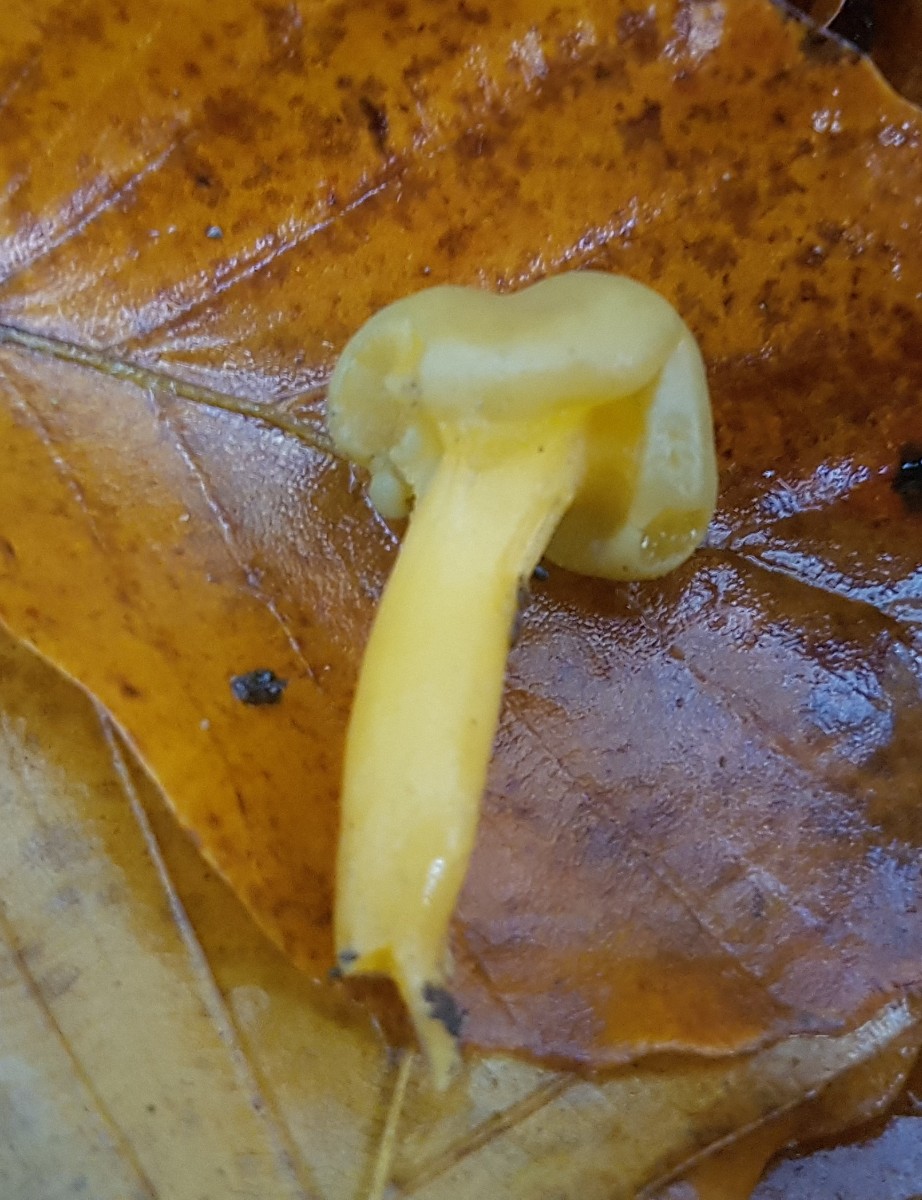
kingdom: Fungi
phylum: Ascomycota
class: Leotiomycetes
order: Leotiales
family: Leotiaceae
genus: Leotia
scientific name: Leotia lubrica
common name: ravsvamp
